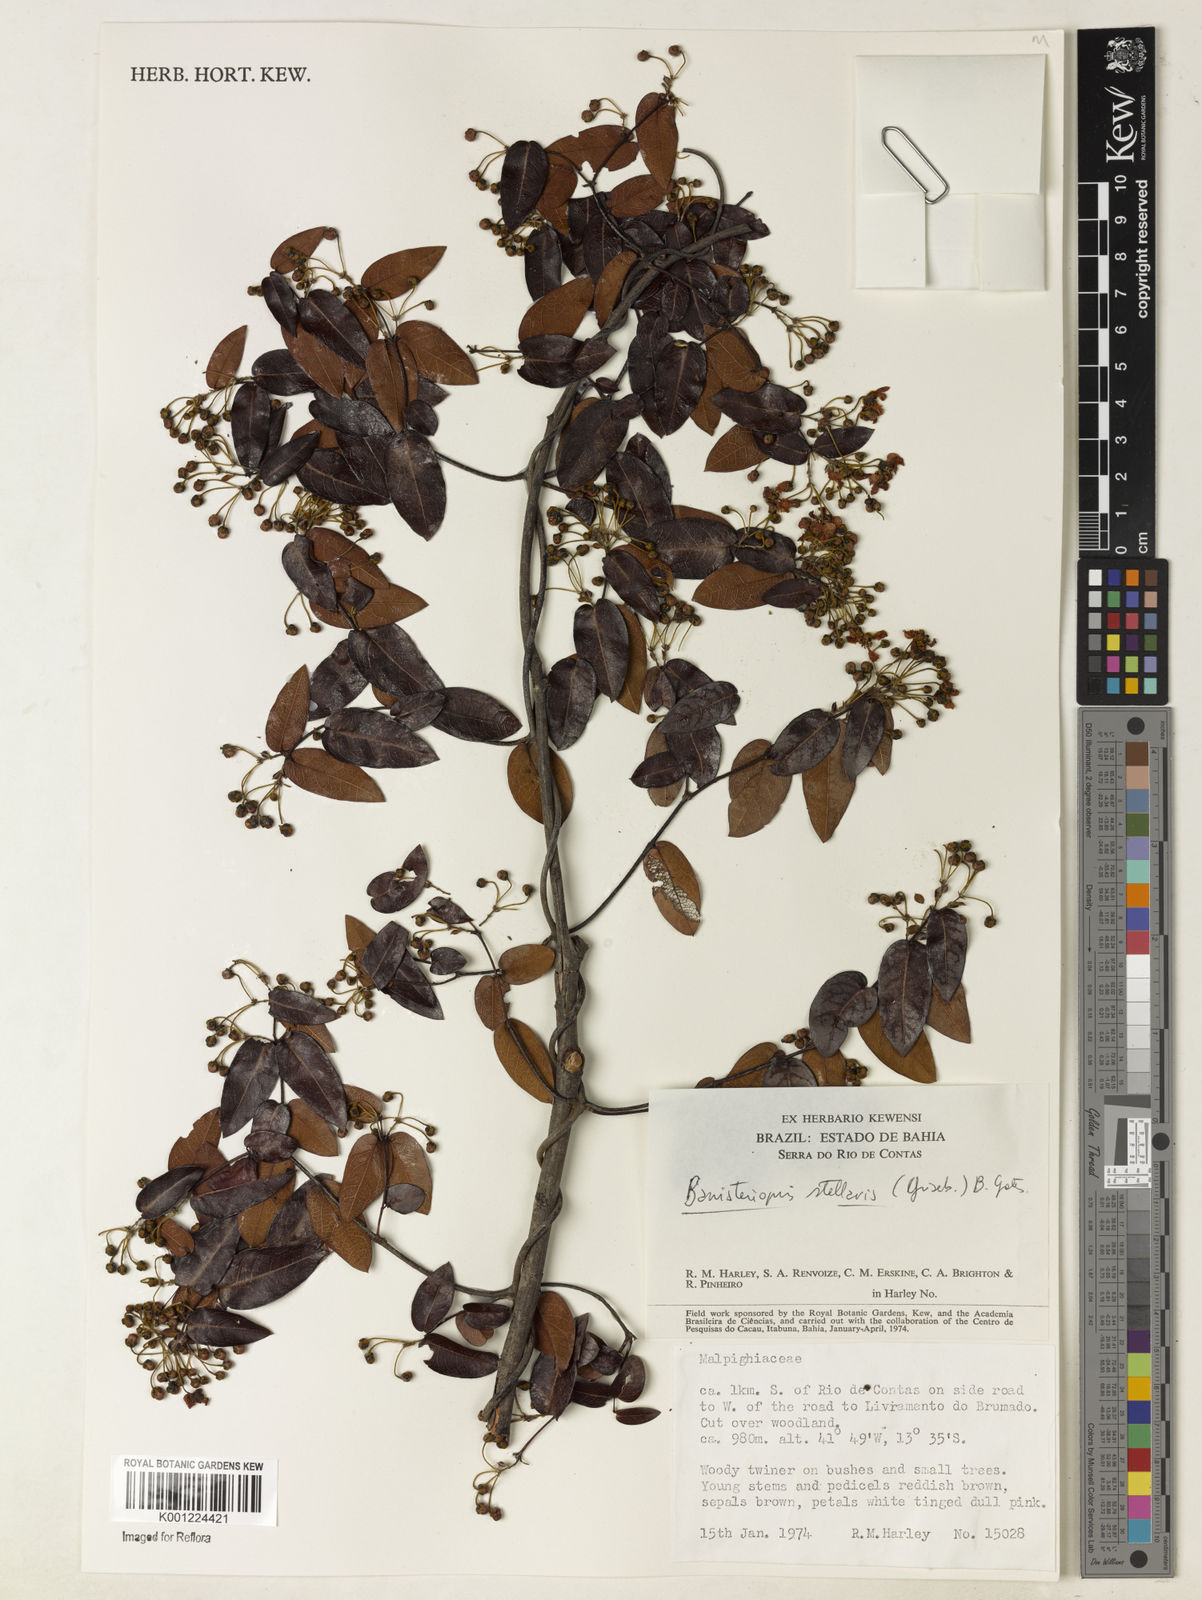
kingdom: Plantae
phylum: Tracheophyta
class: Magnoliopsida
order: Malpighiales
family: Malpighiaceae
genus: Banisteriopsis
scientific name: Banisteriopsis stellaris
